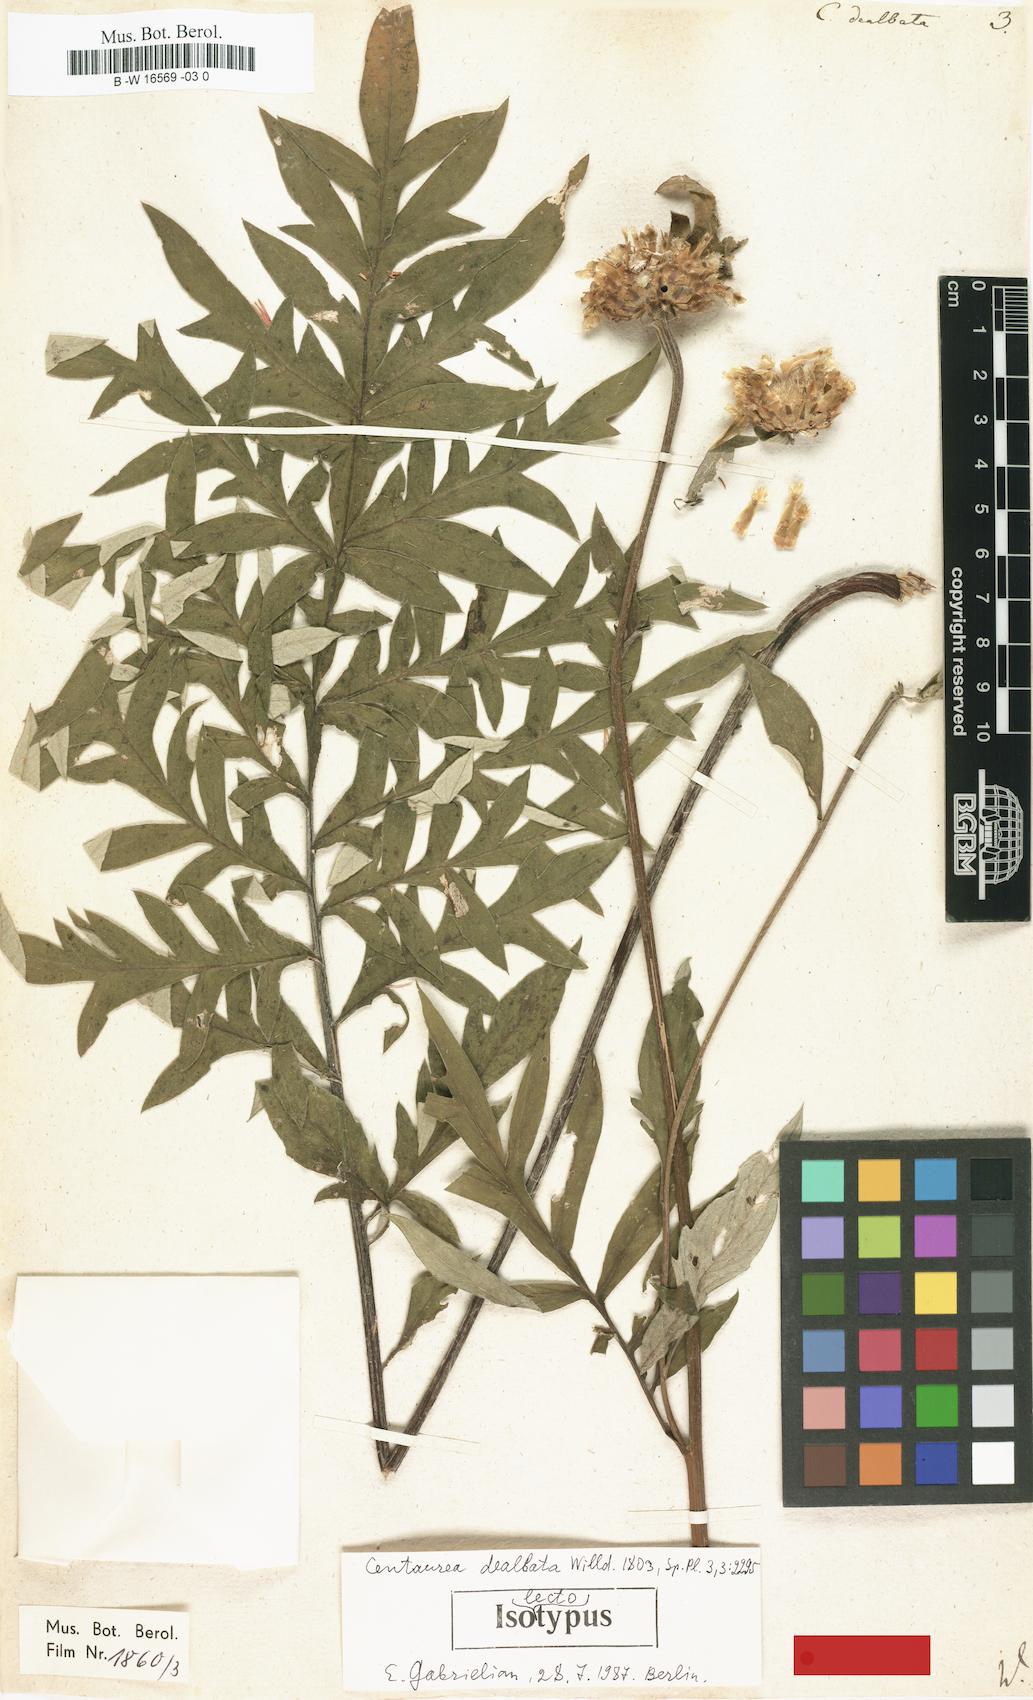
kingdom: Plantae
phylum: Tracheophyta
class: Magnoliopsida
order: Asterales
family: Asteraceae
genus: Psephellus
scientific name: Psephellus dealbatus
